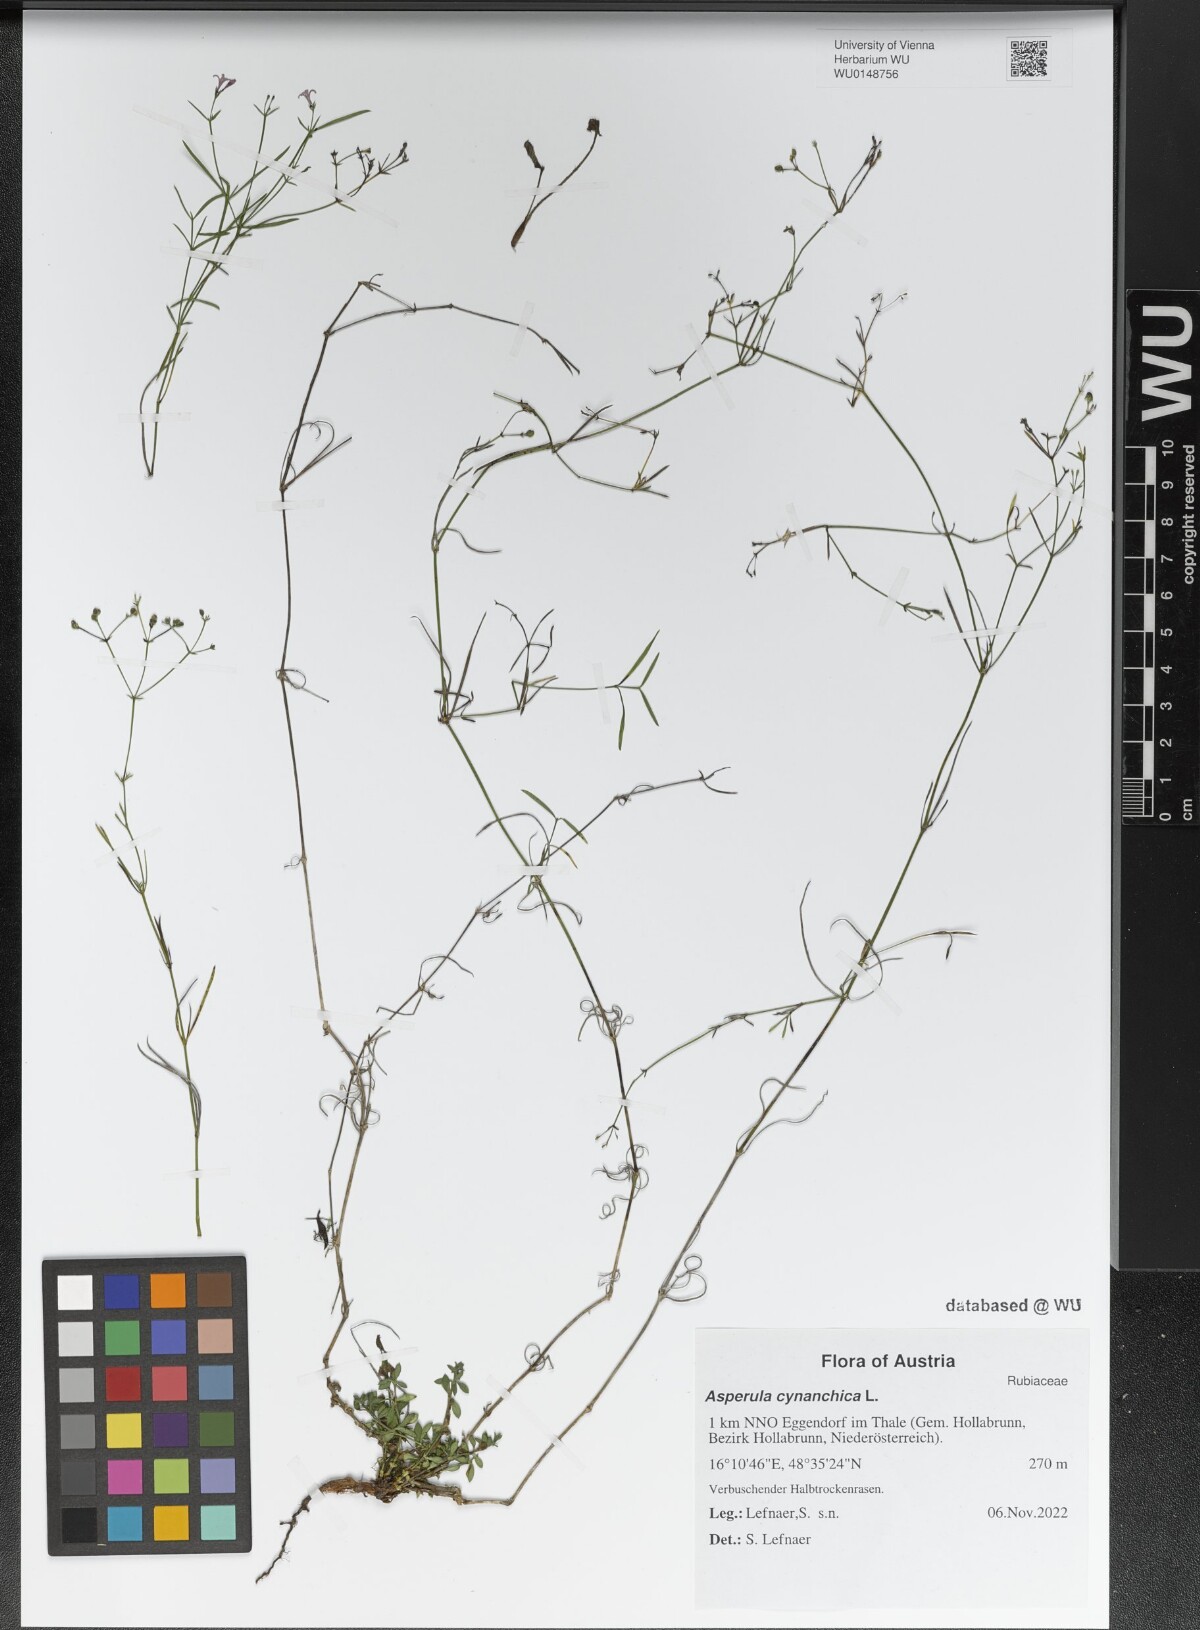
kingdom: Plantae
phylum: Tracheophyta
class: Magnoliopsida
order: Gentianales
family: Rubiaceae
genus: Cynanchica
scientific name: Cynanchica pyrenaica
